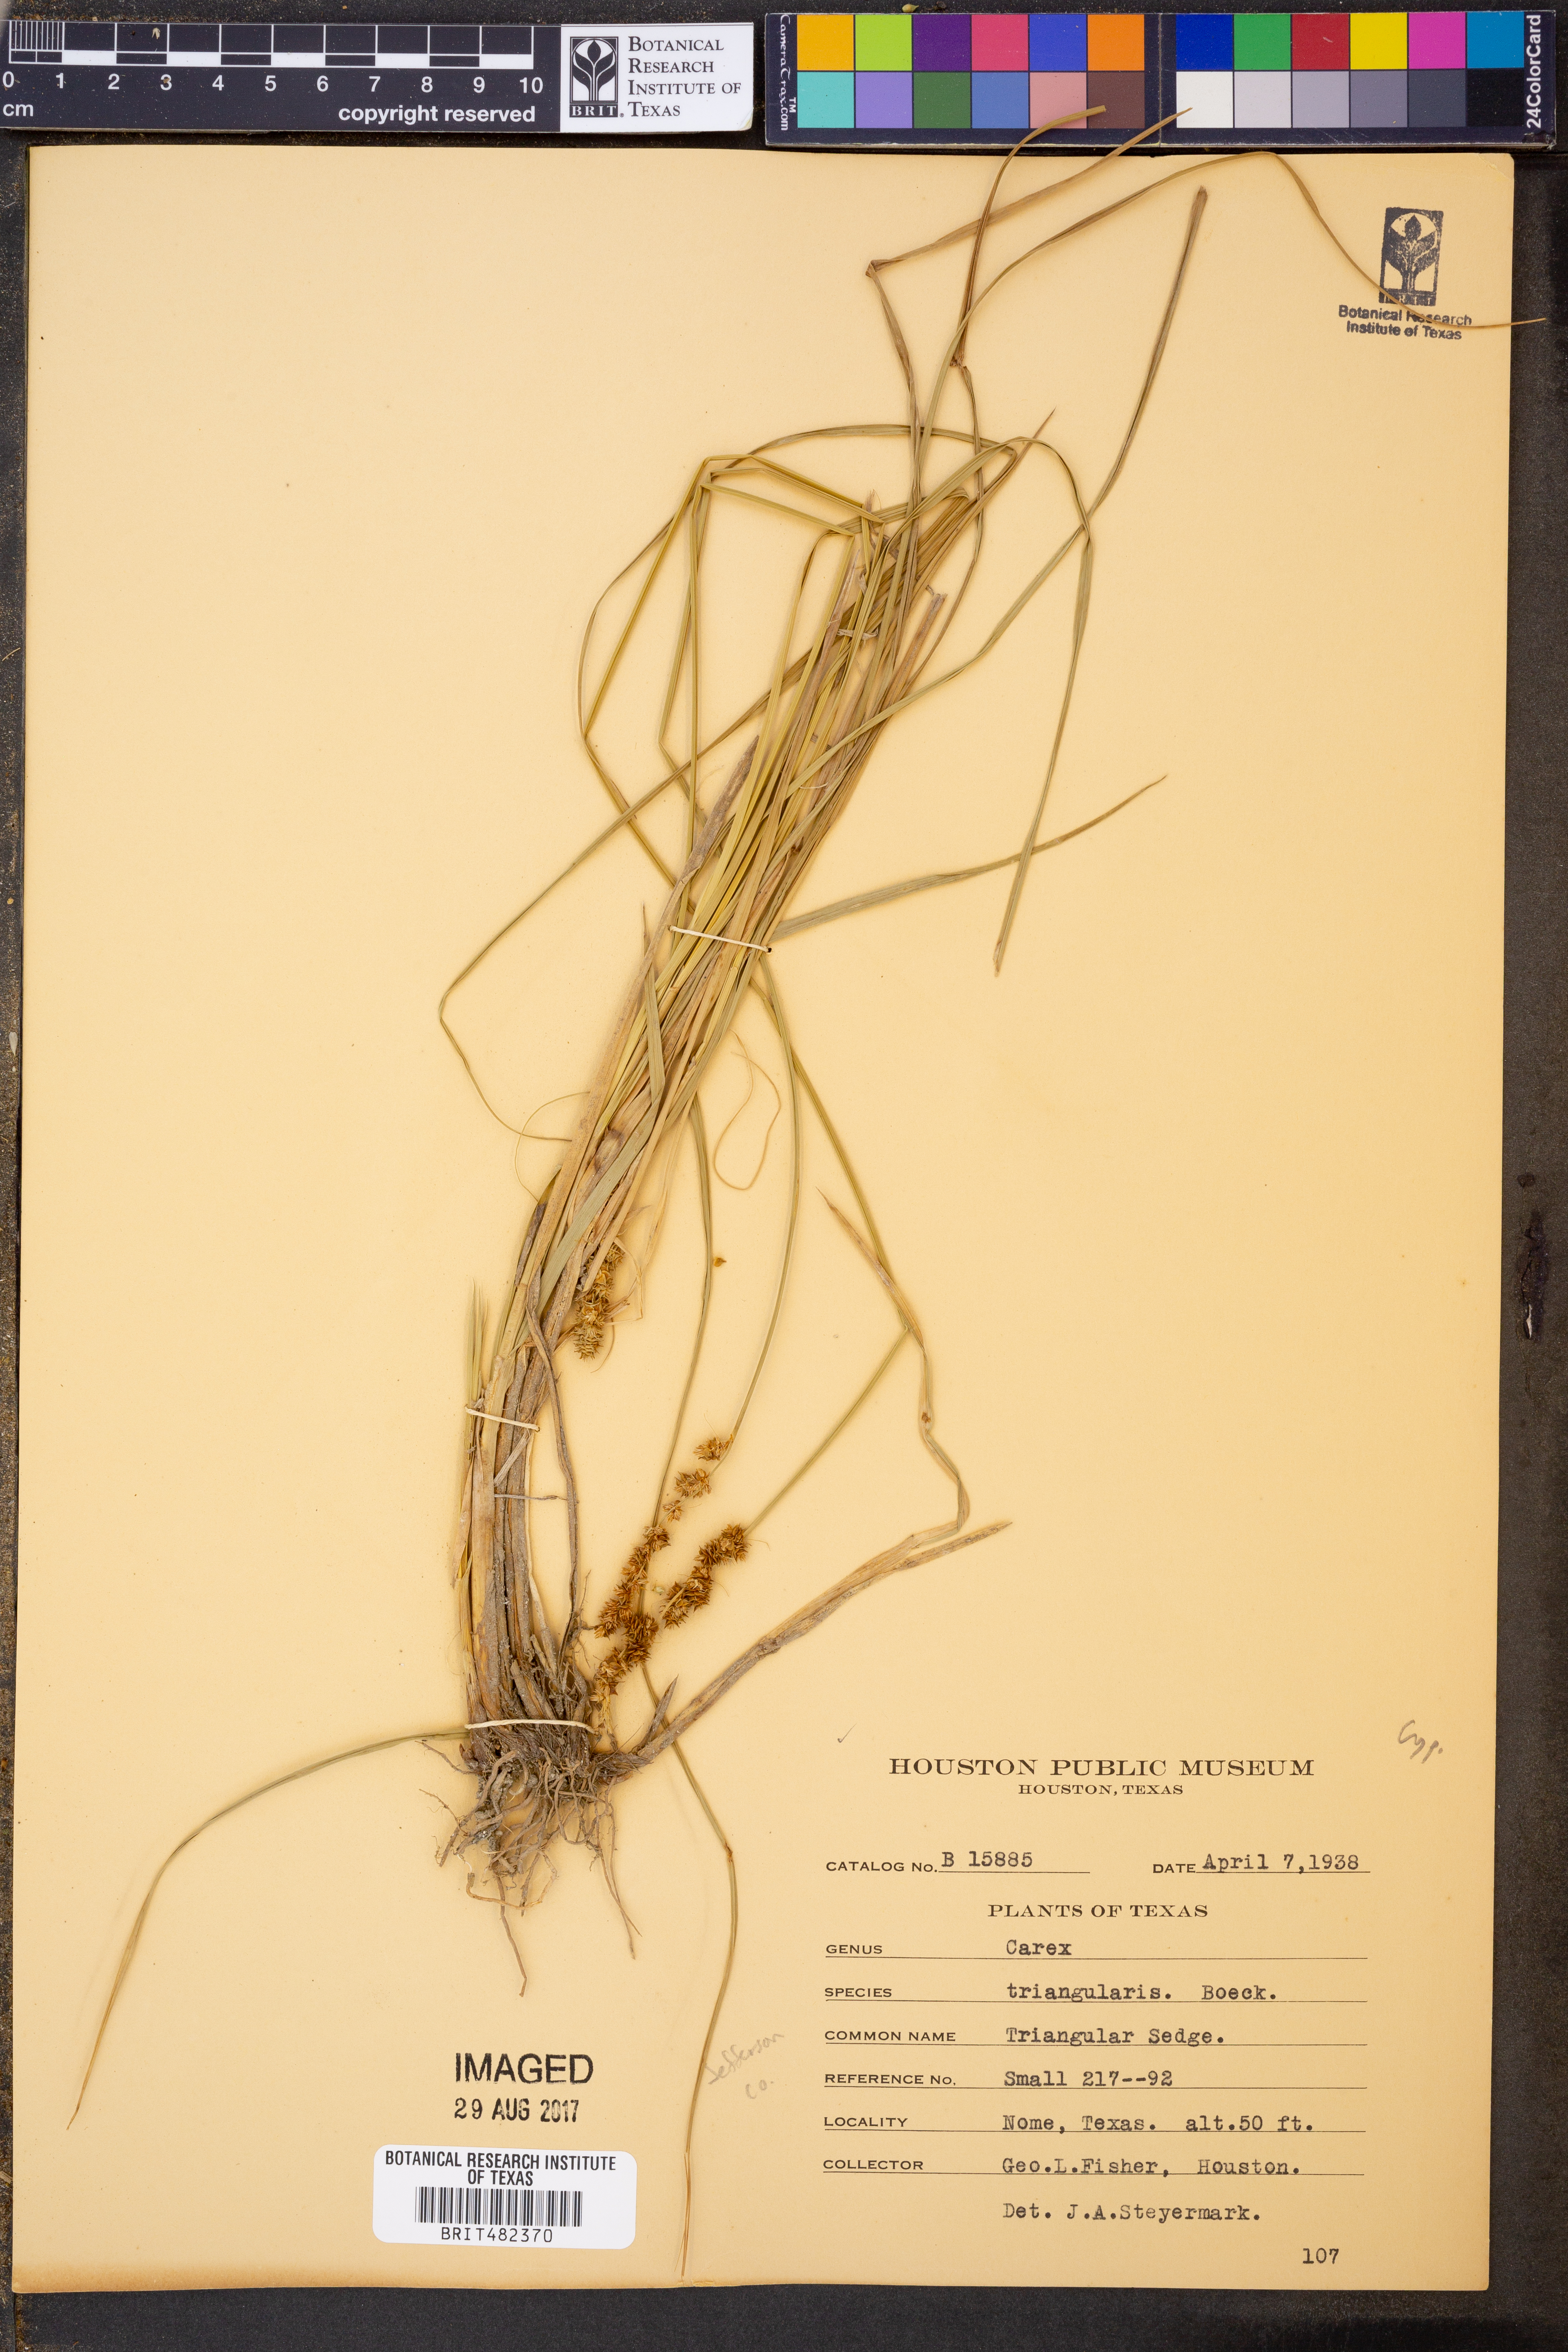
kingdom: Plantae
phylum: Tracheophyta
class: Liliopsida
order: Poales
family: Cyperaceae
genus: Carex
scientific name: Carex triangularis
